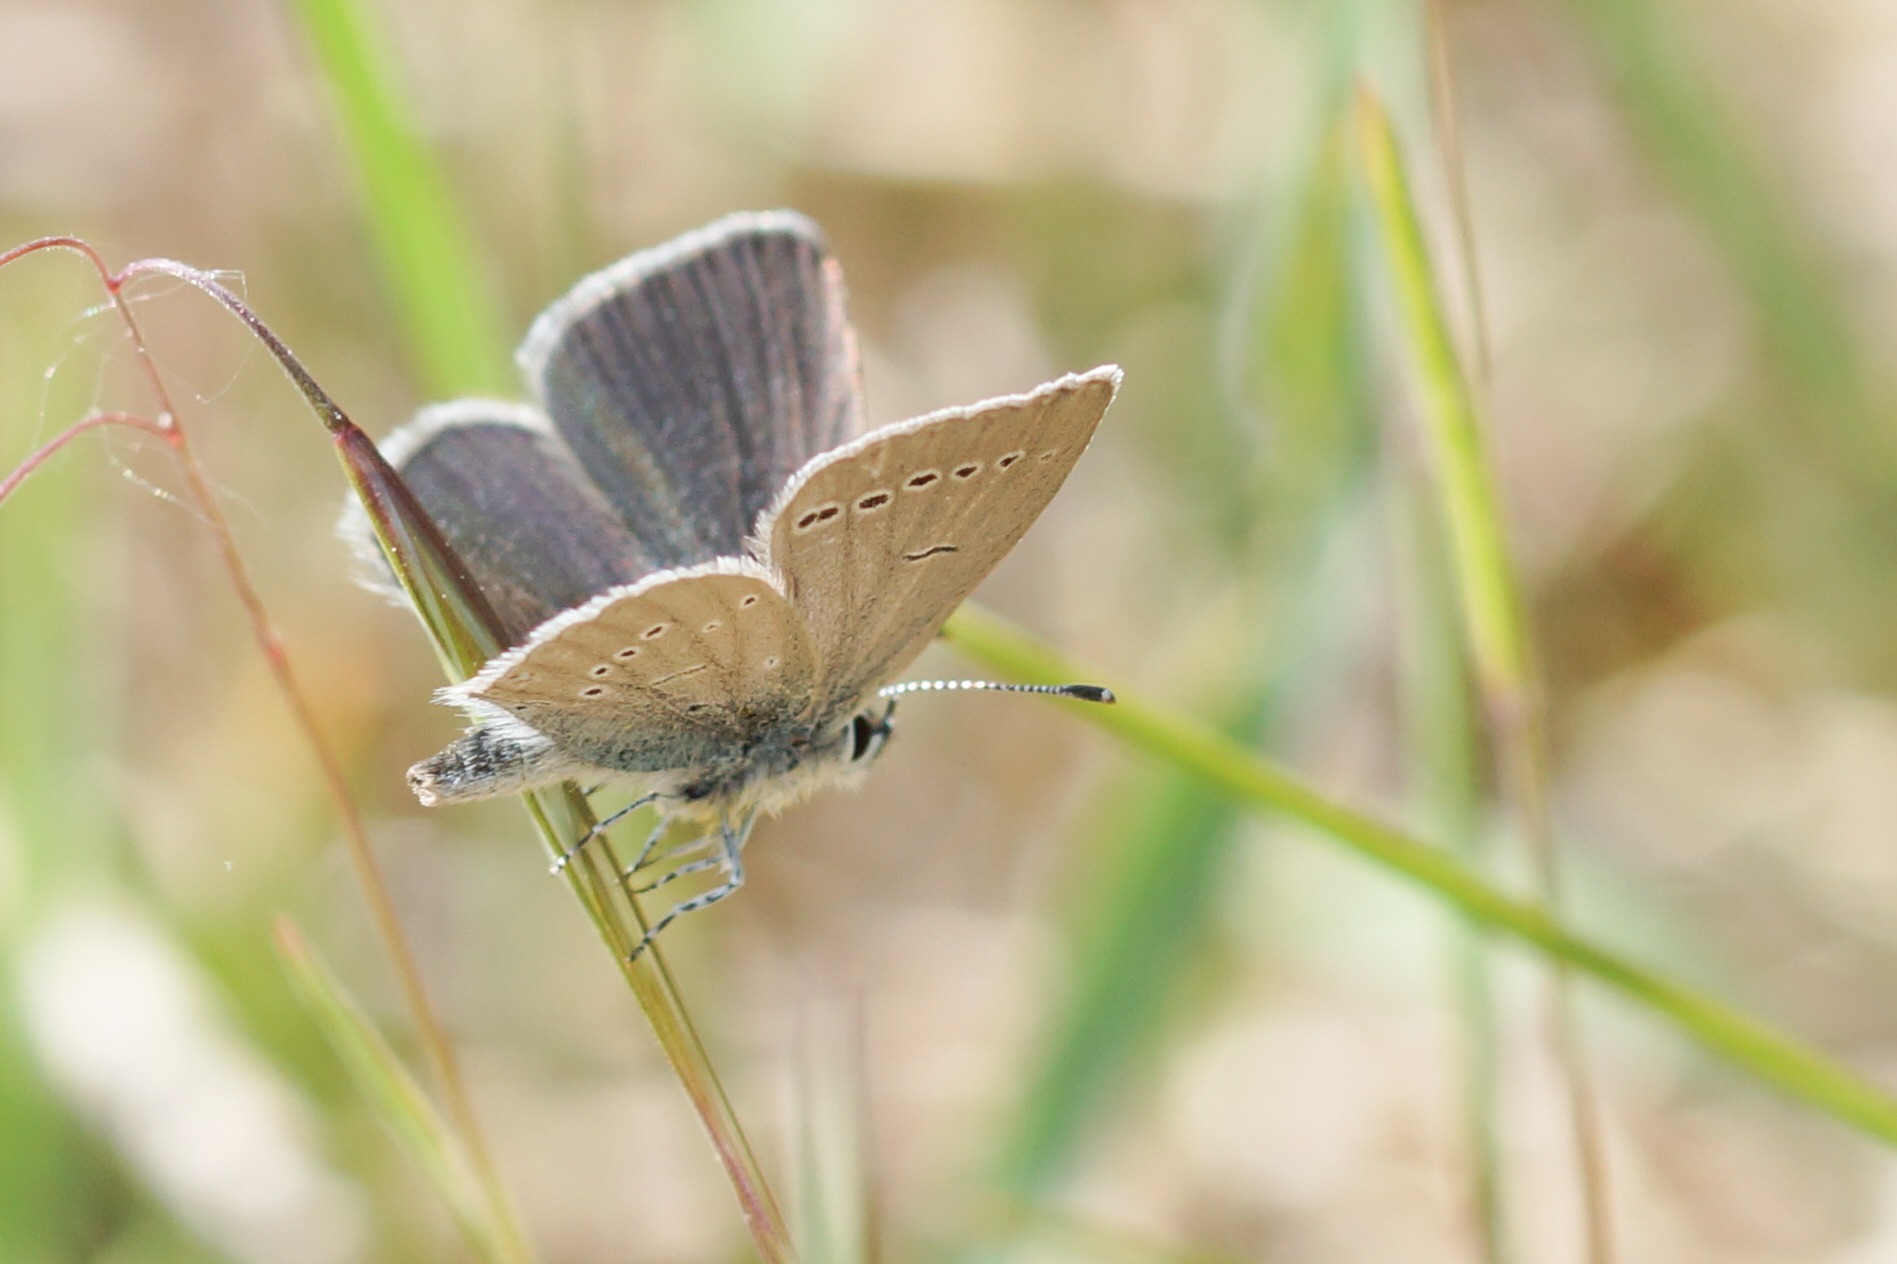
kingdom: Animalia
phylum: Arthropoda
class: Insecta
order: Lepidoptera
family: Lycaenidae
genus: Cupido
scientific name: Cupido minimus
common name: Dværgblåfugl
